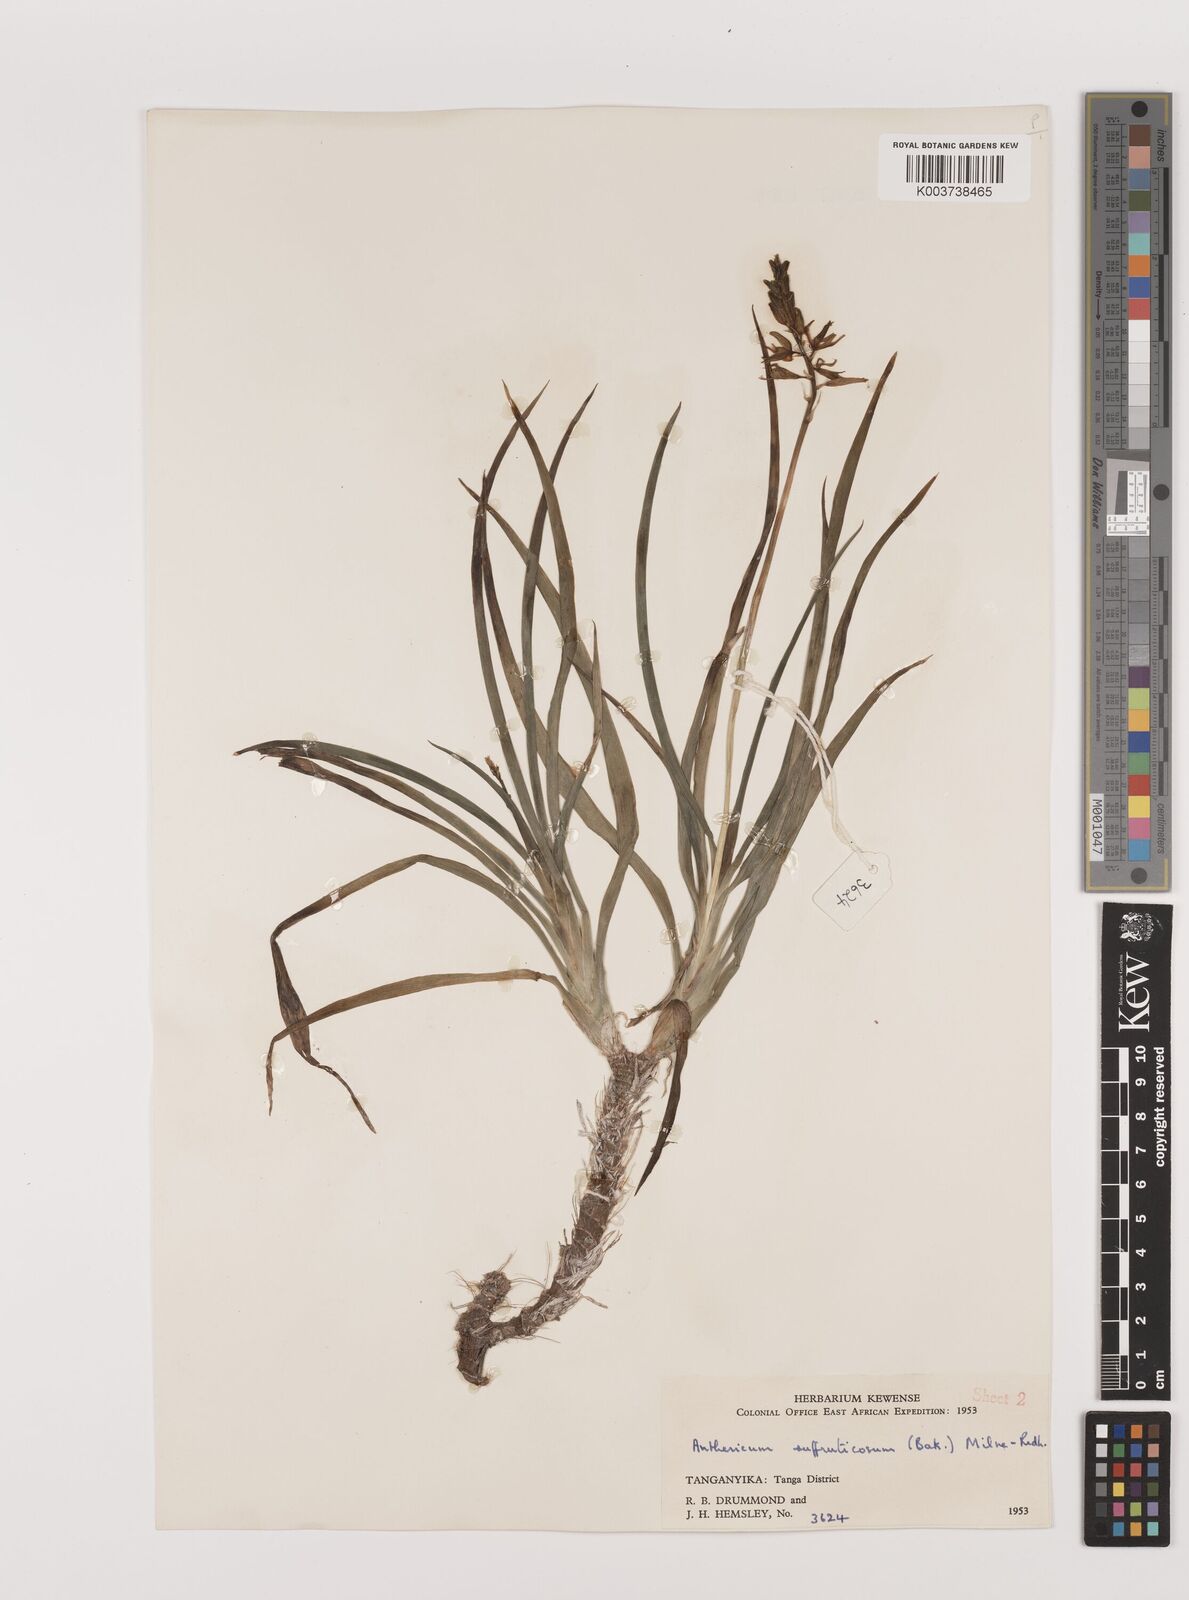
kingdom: Plantae
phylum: Tracheophyta
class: Liliopsida
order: Asparagales
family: Asparagaceae
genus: Chlorophytum
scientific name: Chlorophytum suffruticosum
